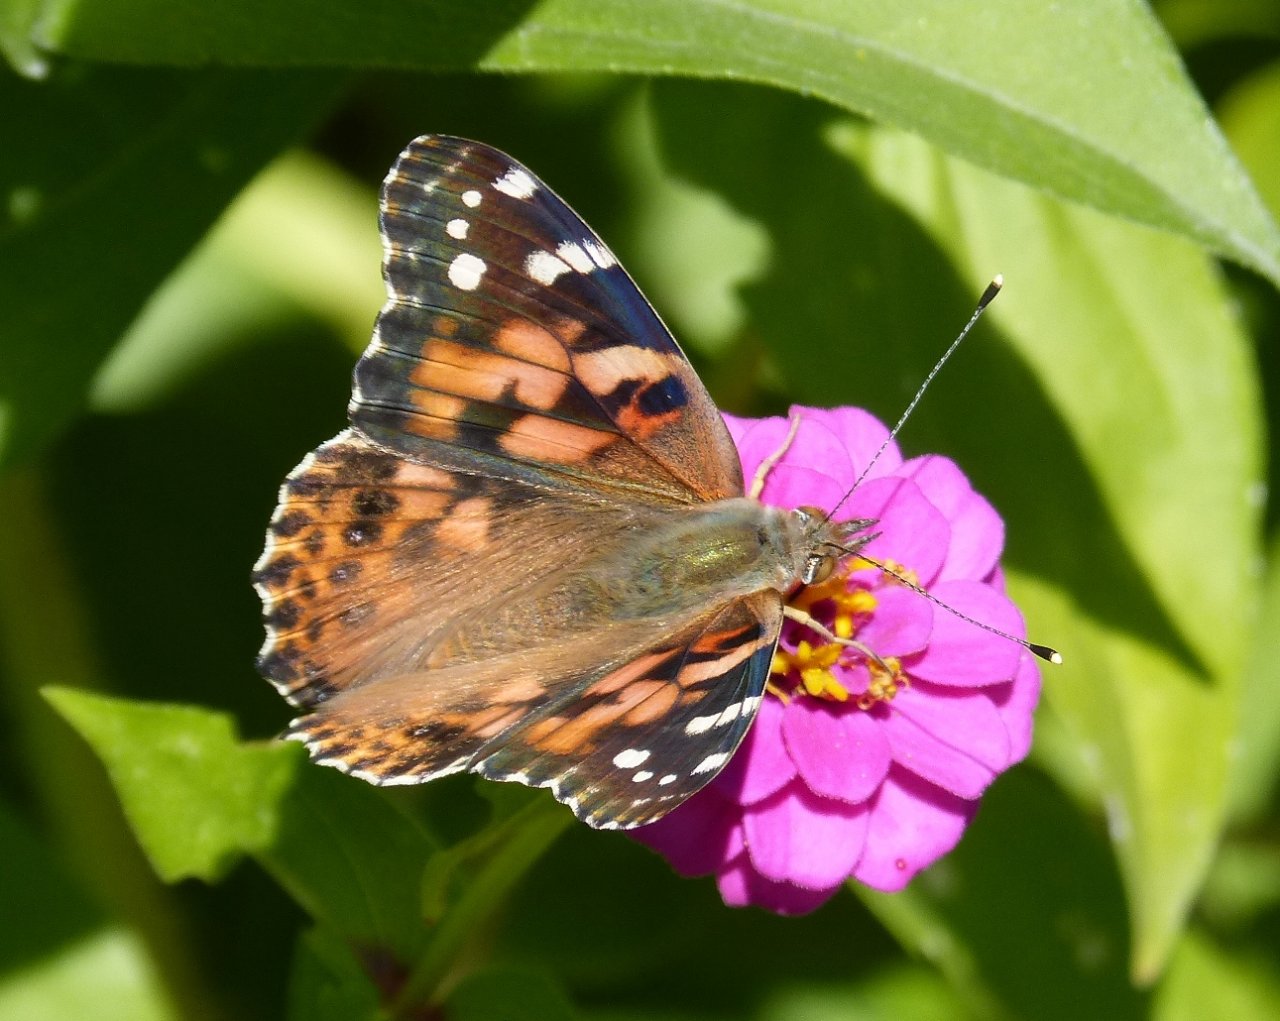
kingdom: Animalia
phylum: Arthropoda
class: Insecta
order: Lepidoptera
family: Nymphalidae
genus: Vanessa
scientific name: Vanessa cardui
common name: Painted Lady
